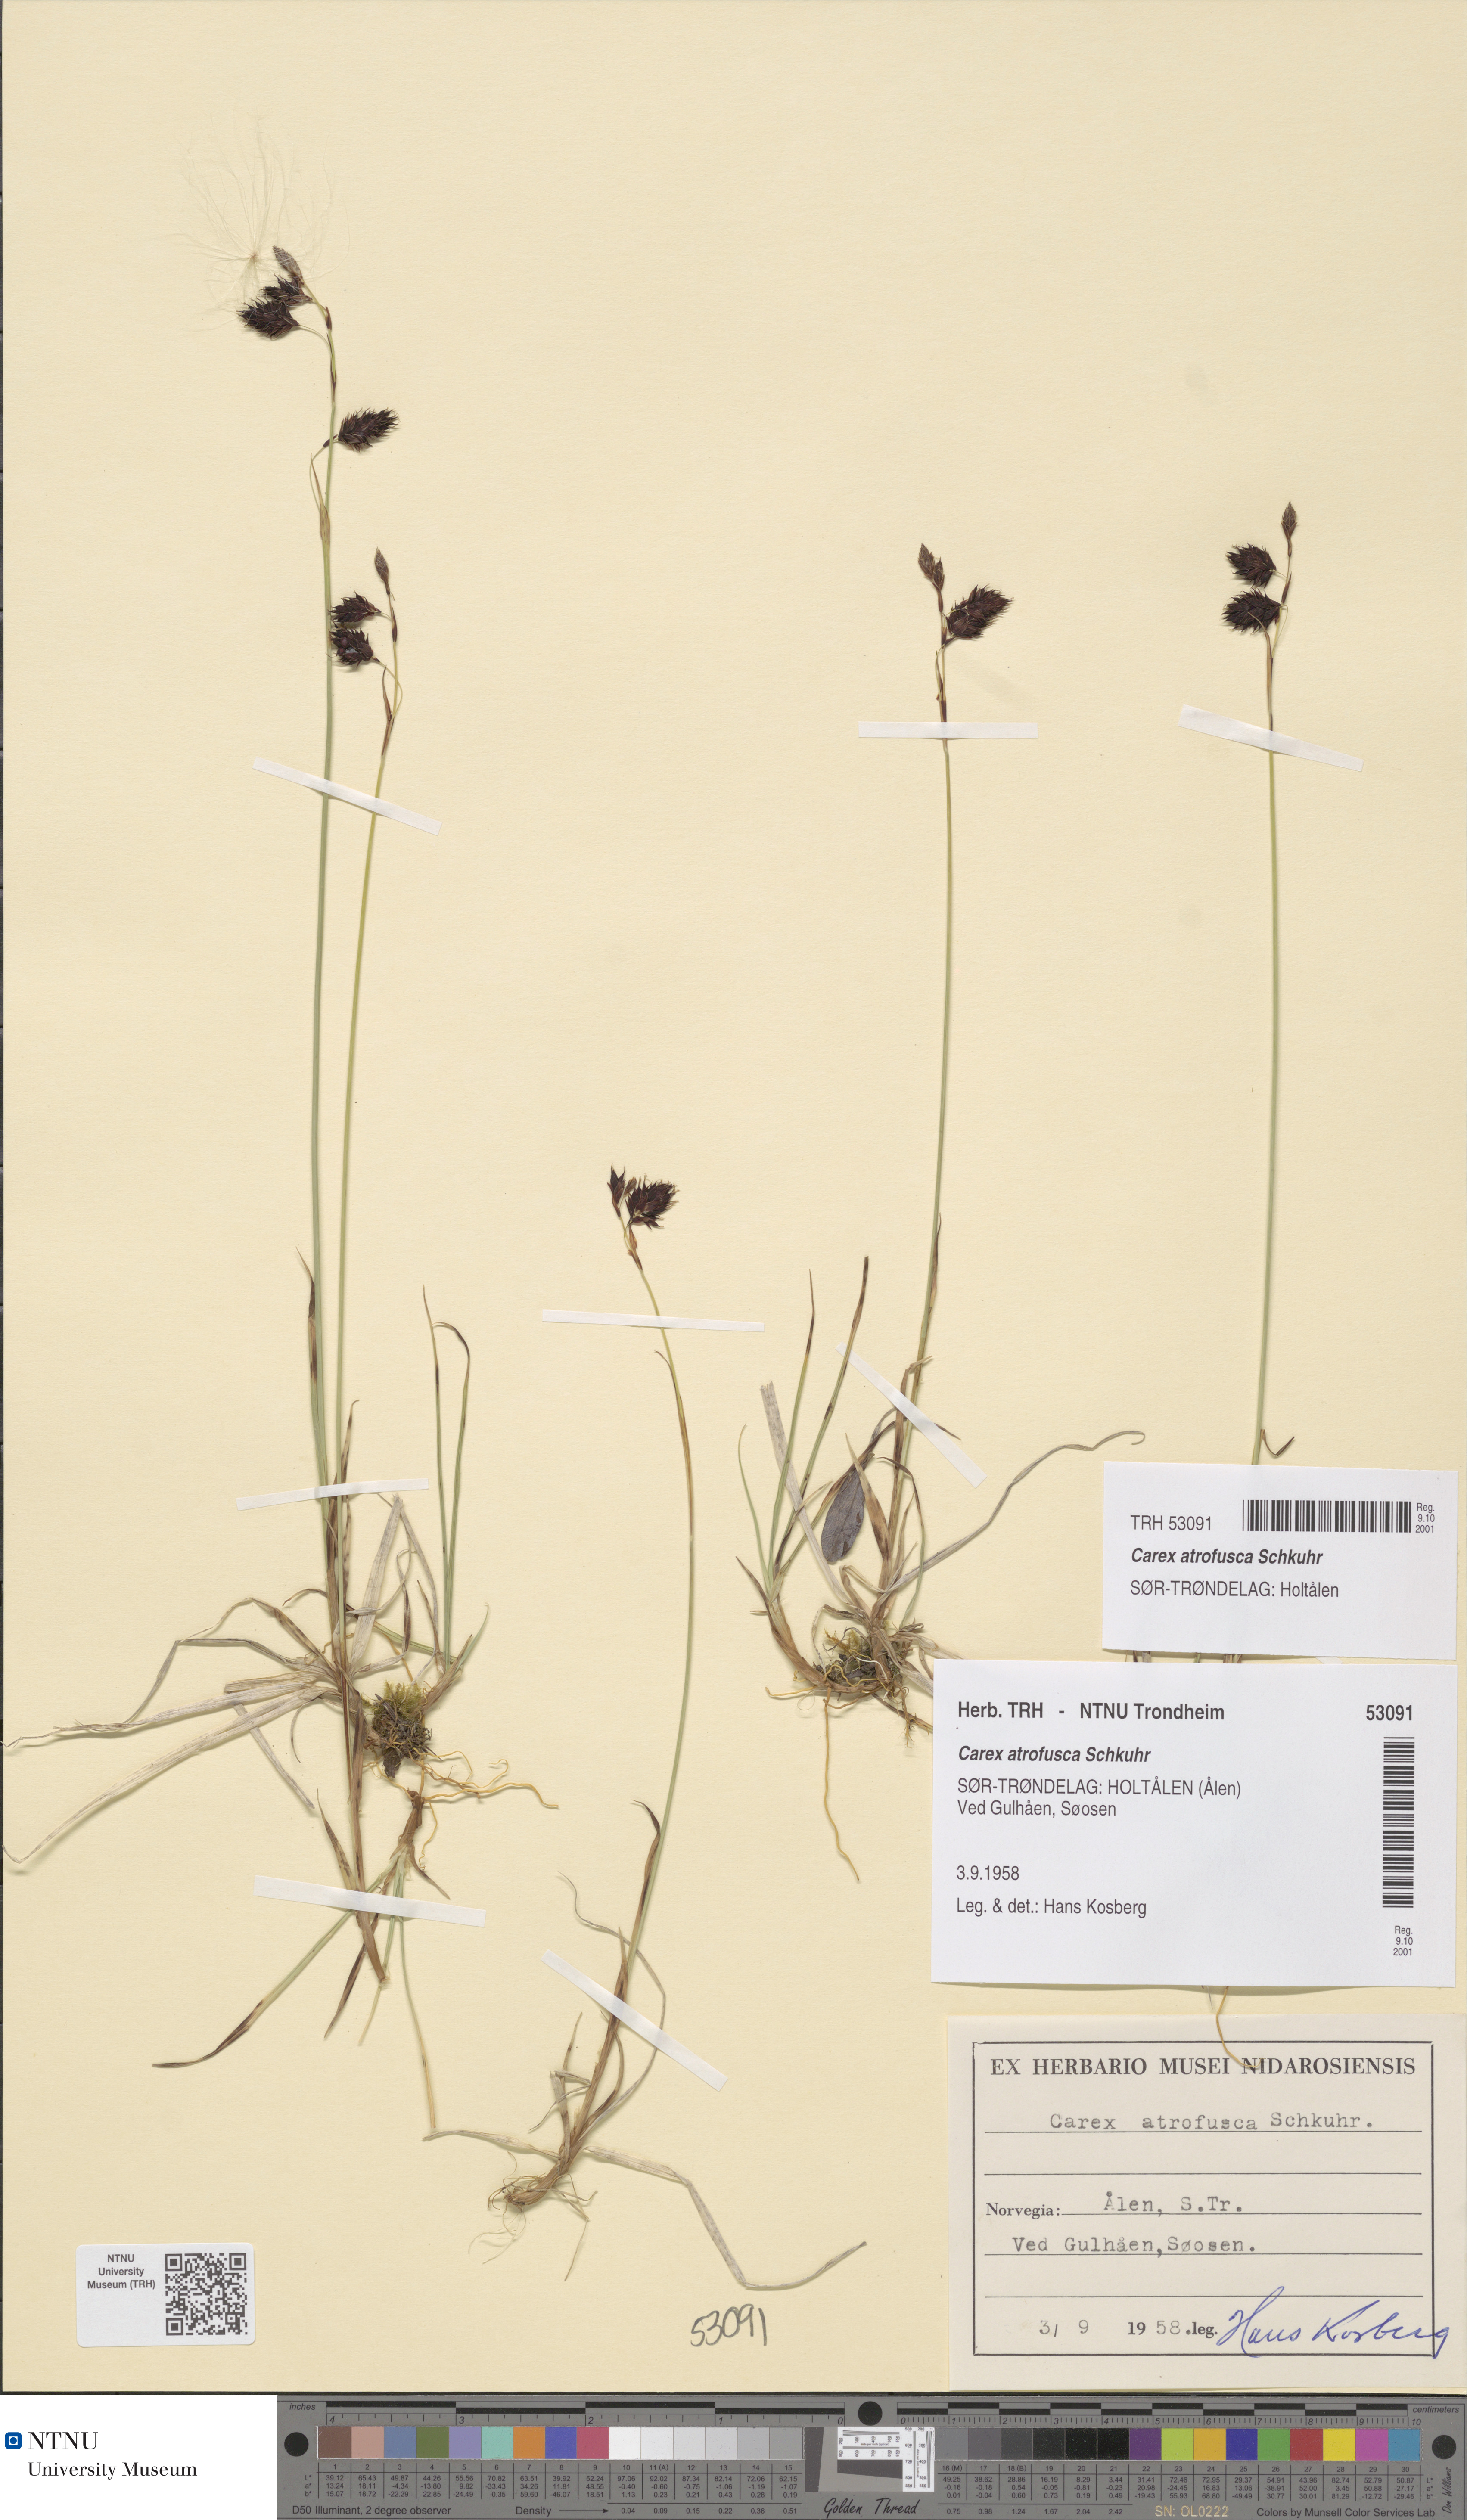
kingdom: Plantae
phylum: Tracheophyta
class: Liliopsida
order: Poales
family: Cyperaceae
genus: Carex
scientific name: Carex atrofusca
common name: Scorched alpine-sedge
